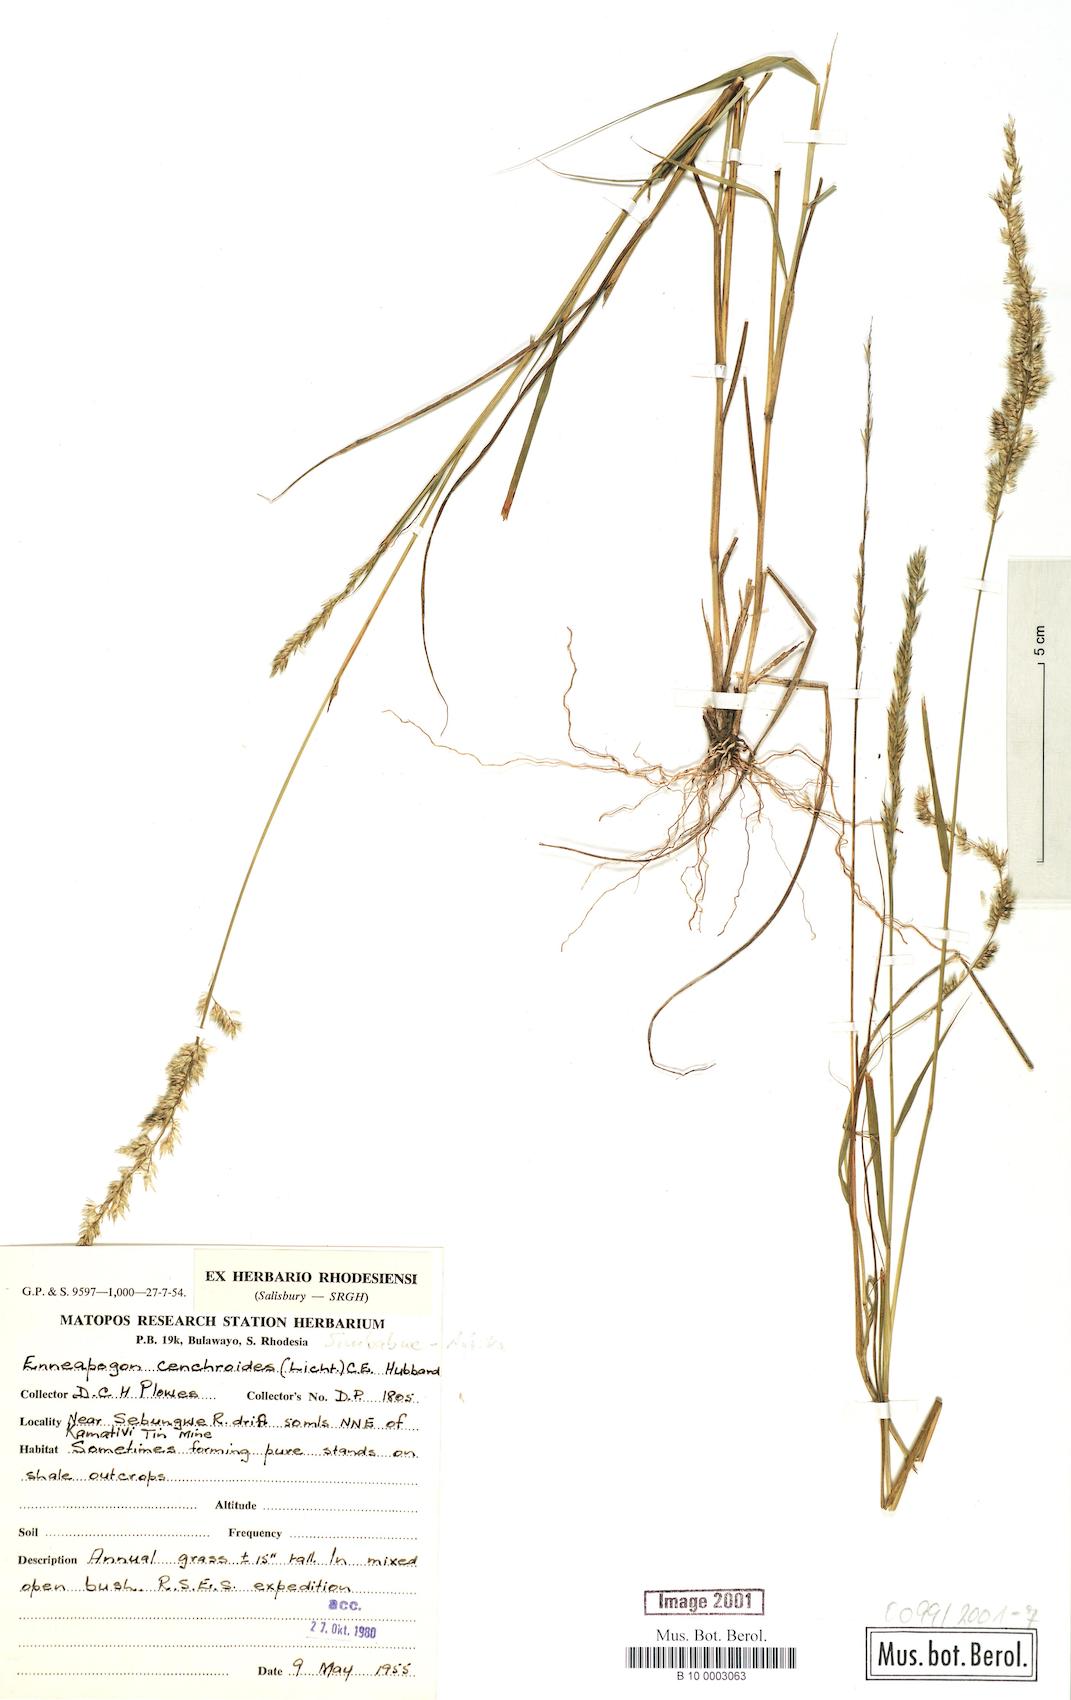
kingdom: Plantae
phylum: Tracheophyta
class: Liliopsida
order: Poales
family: Poaceae
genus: Enneapogon
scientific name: Enneapogon cenchroides
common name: Soft feather pappusgrass
